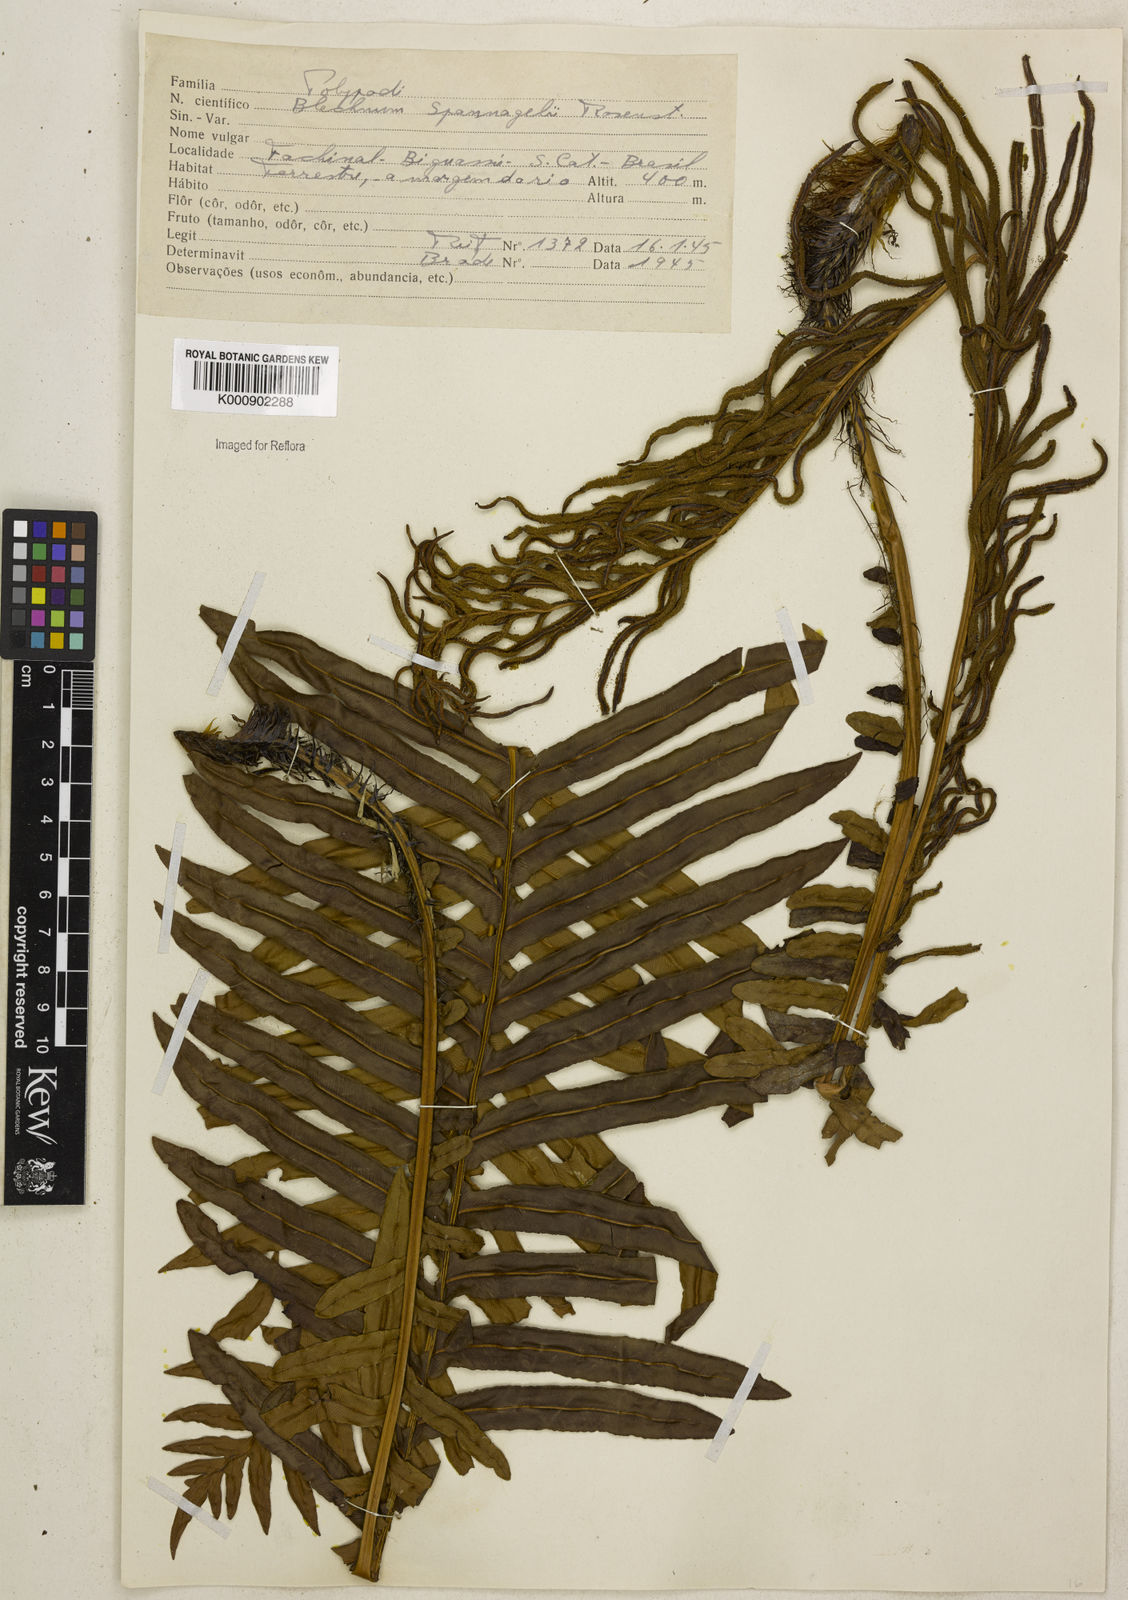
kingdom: Plantae
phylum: Tracheophyta
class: Polypodiopsida
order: Polypodiales
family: Blechnaceae
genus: Lomaria
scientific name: Lomaria spannagelii
